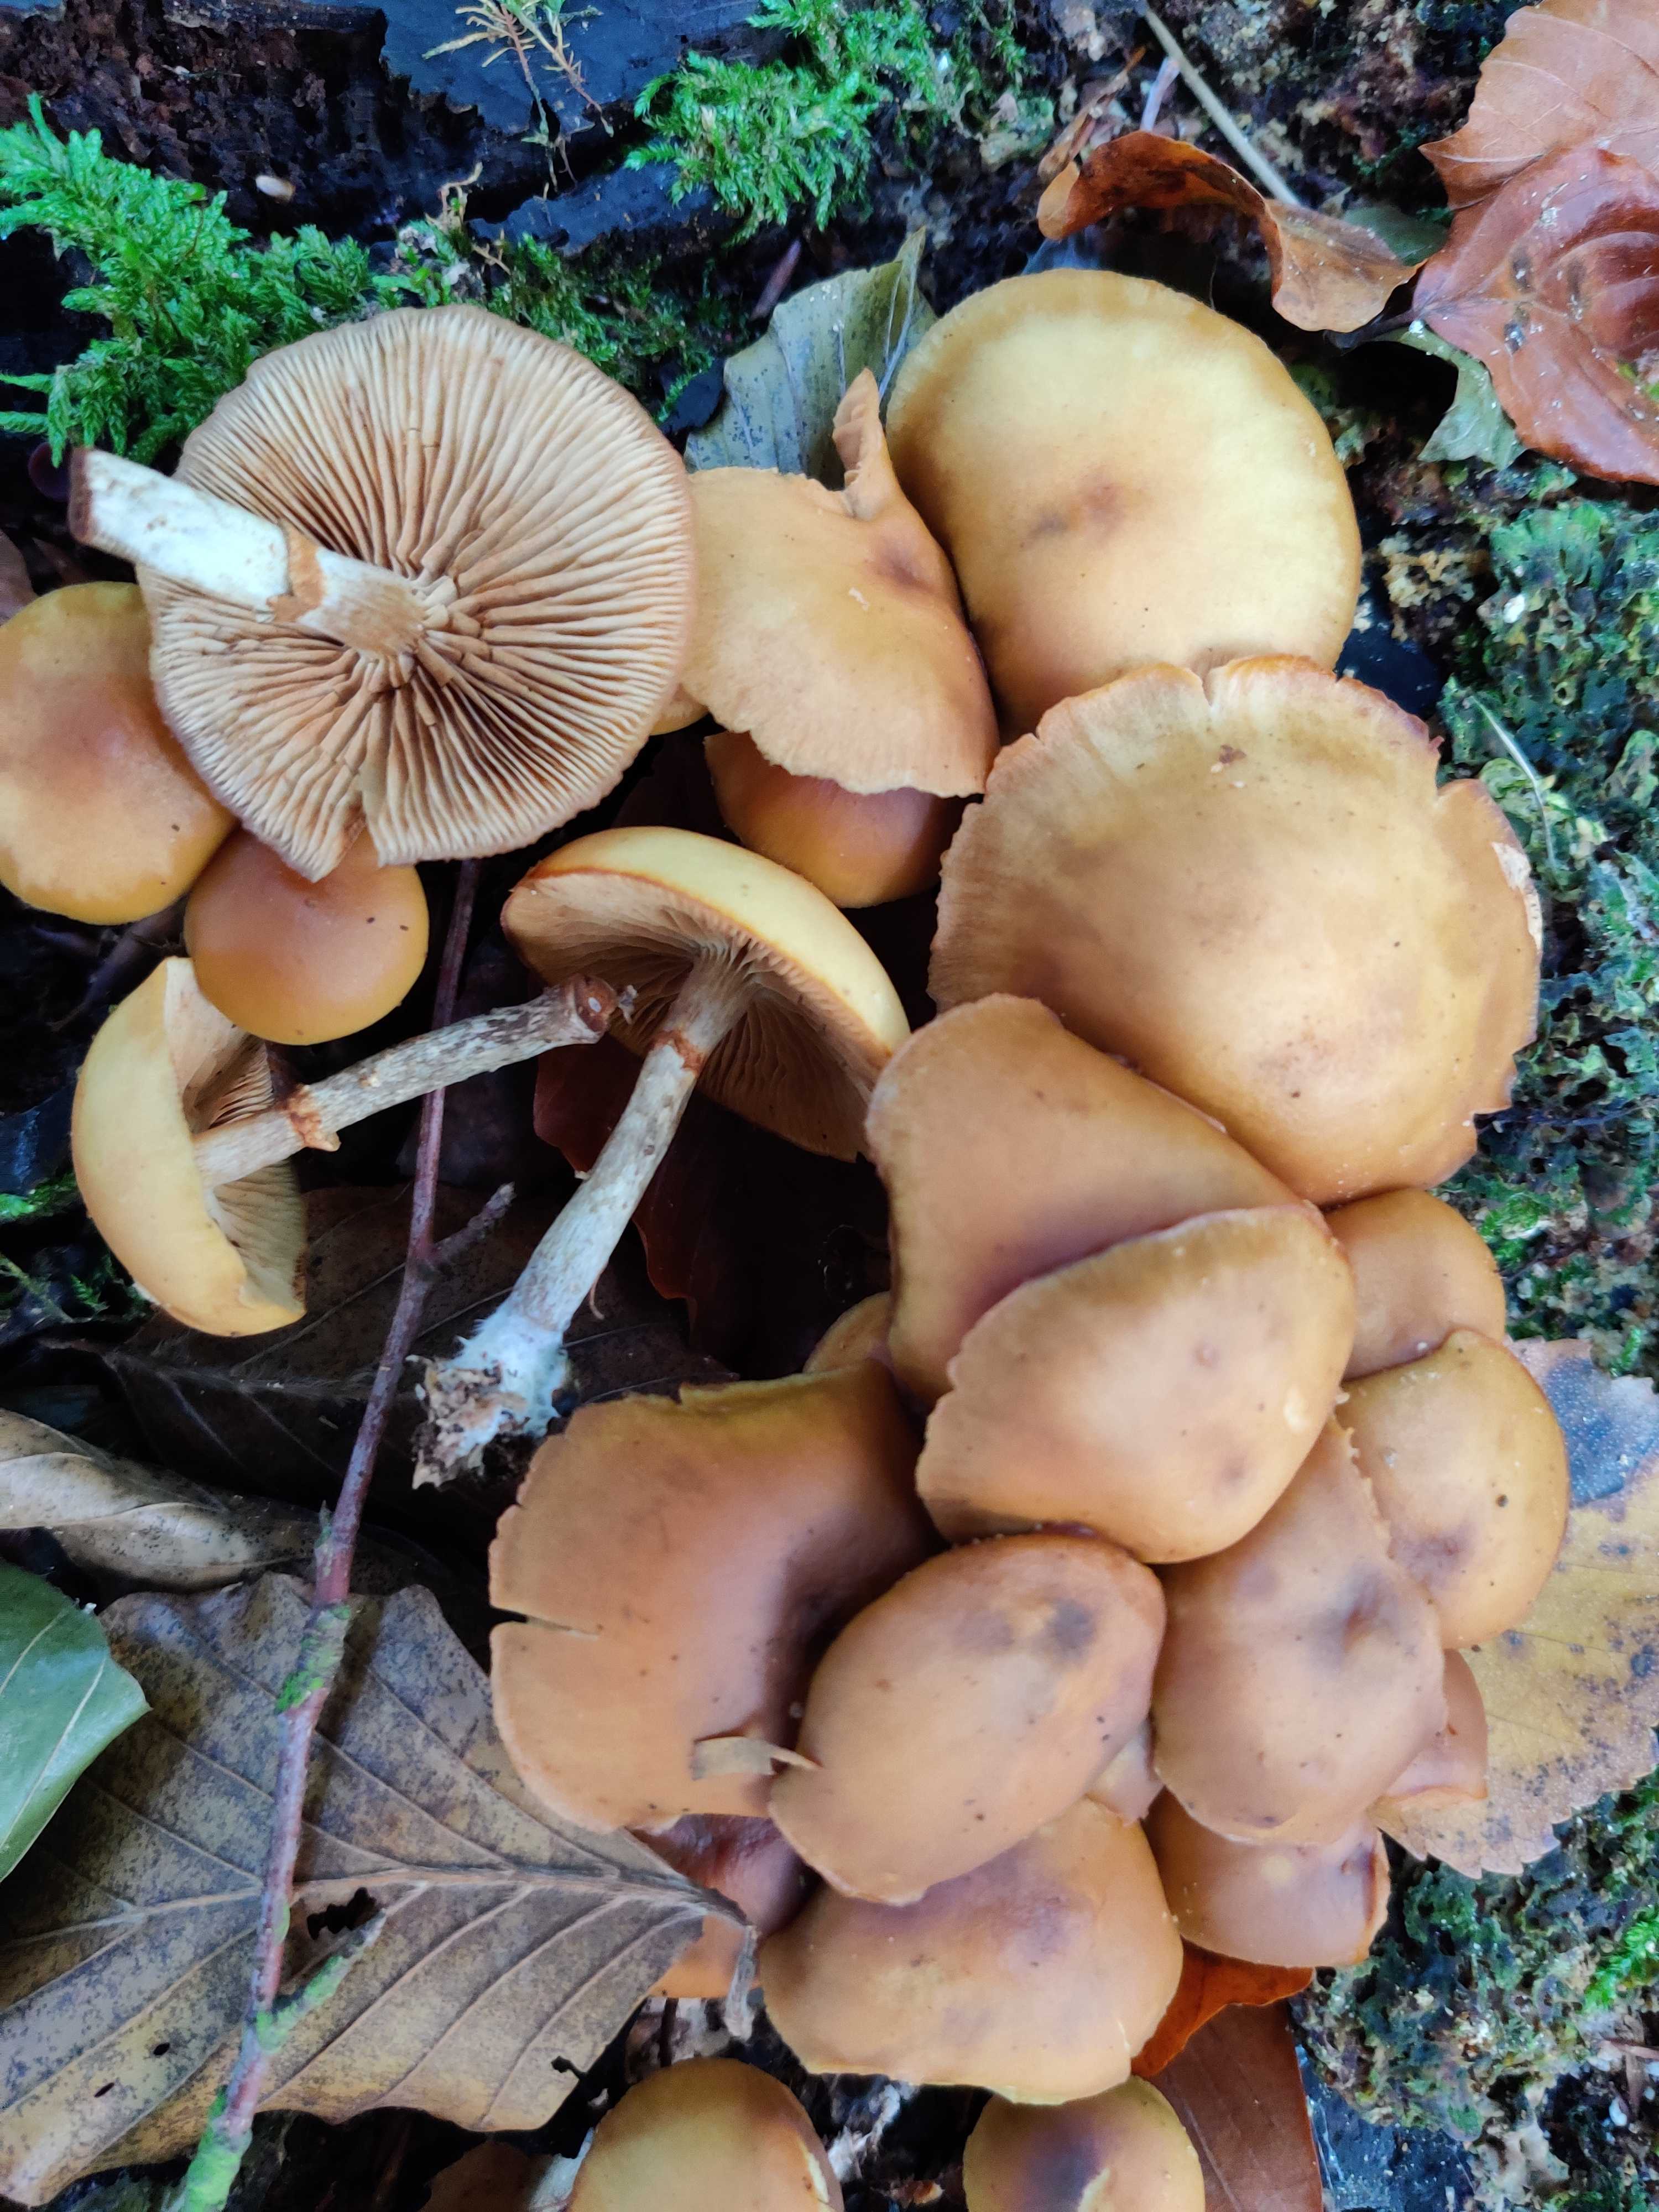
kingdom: Fungi
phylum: Basidiomycota
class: Agaricomycetes
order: Agaricales
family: Hymenogastraceae
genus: Galerina
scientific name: Galerina marginata
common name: randbæltet hjelmhat
